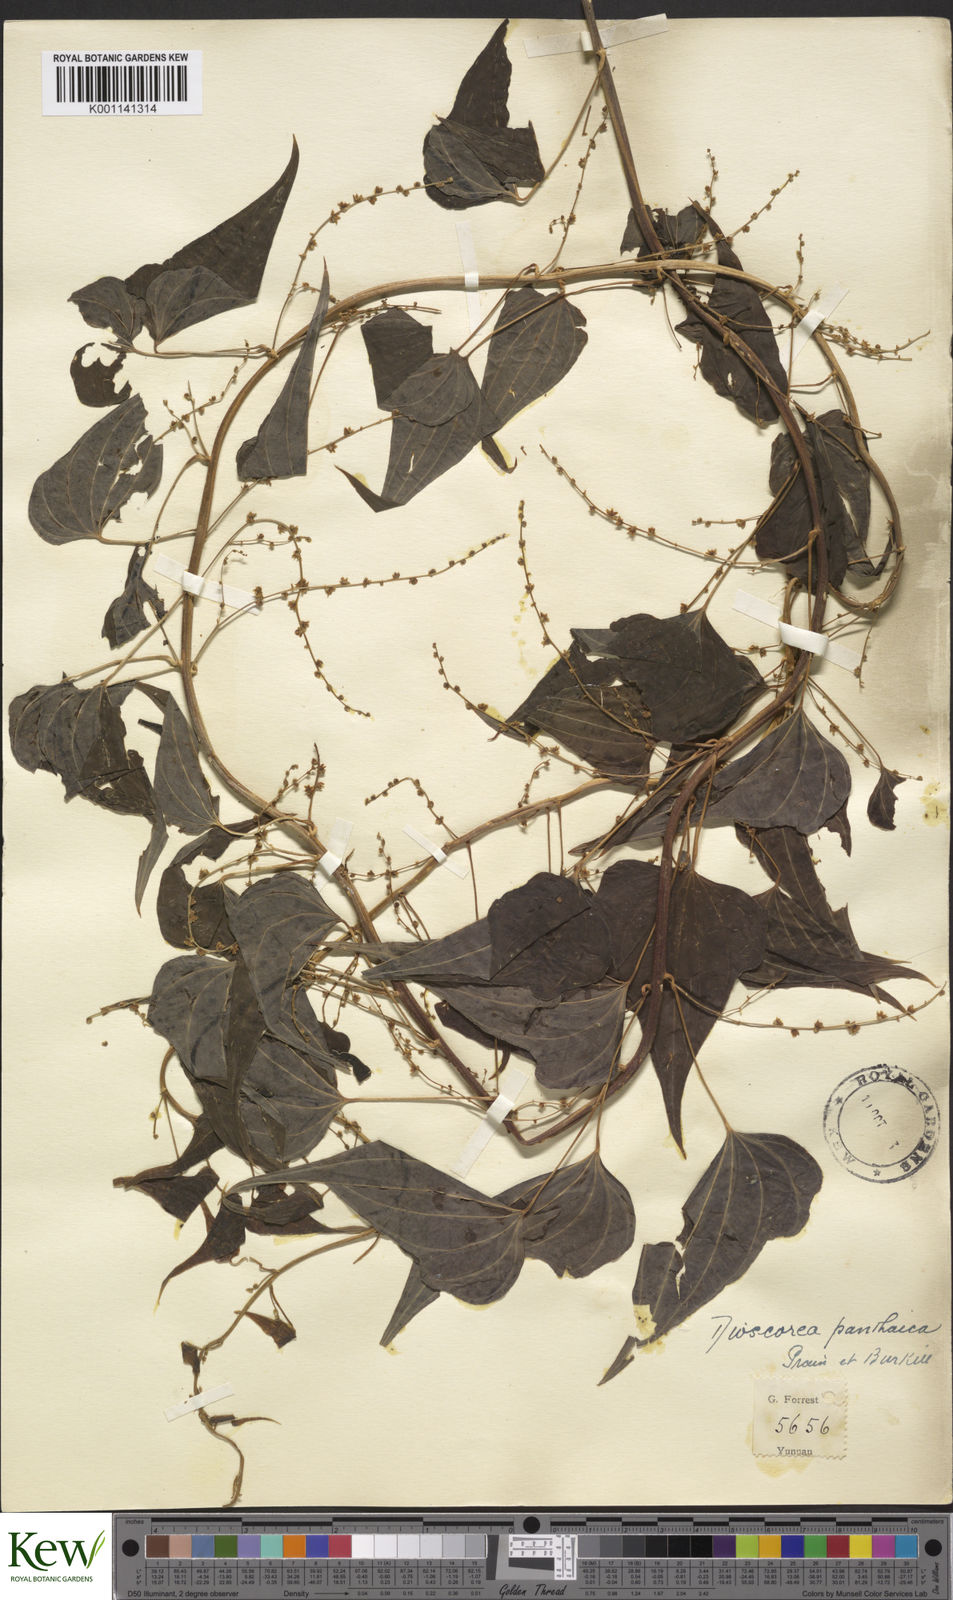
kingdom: Plantae
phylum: Tracheophyta
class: Liliopsida
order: Dioscoreales
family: Dioscoreaceae
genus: Dioscorea
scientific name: Dioscorea panthaica
